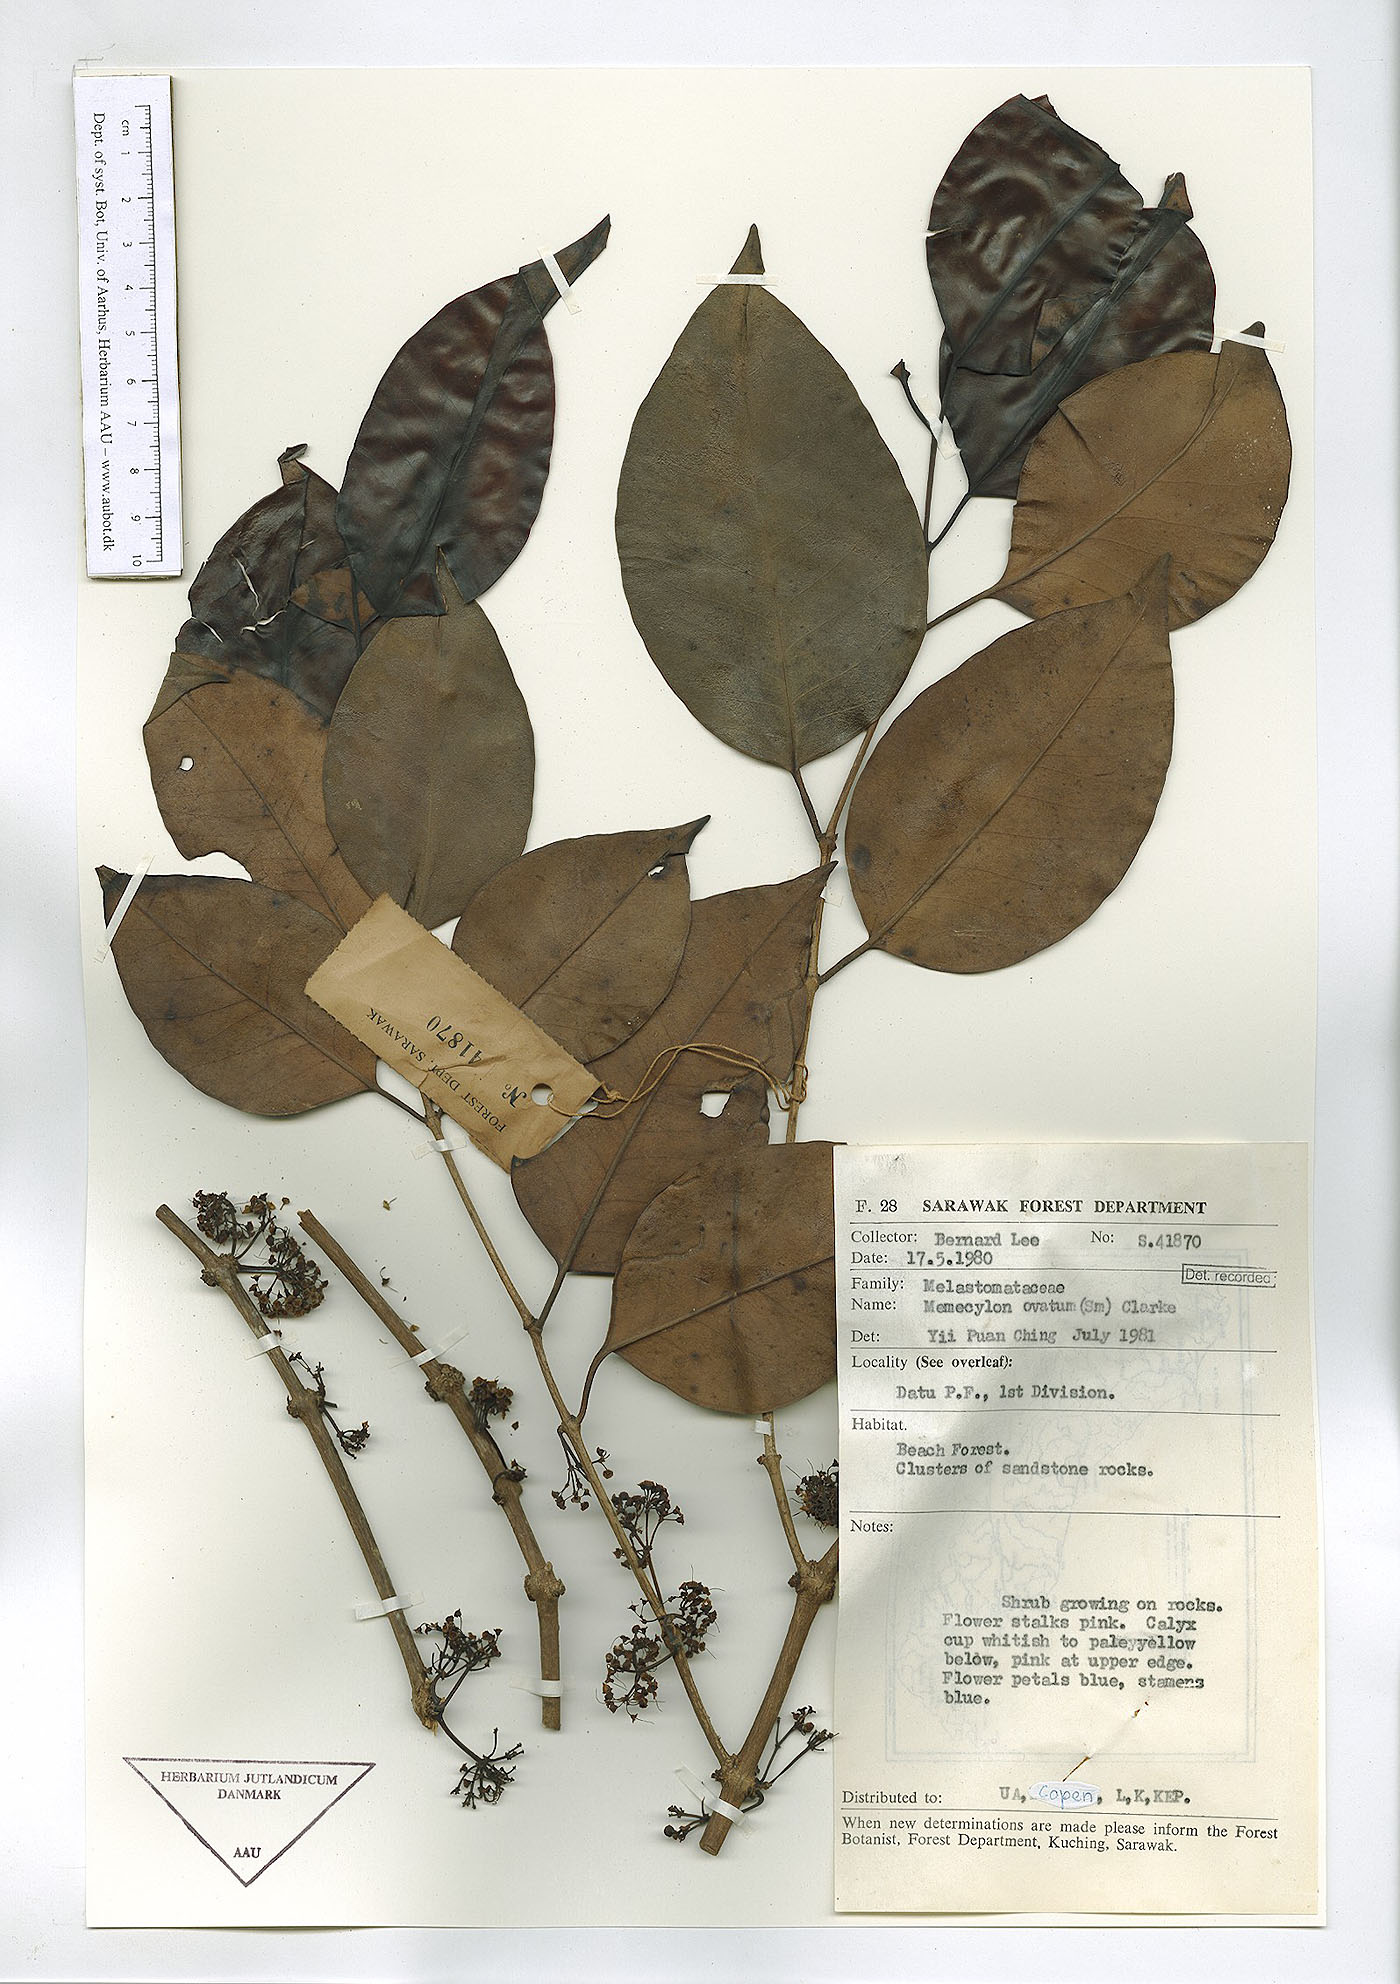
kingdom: Plantae
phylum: Tracheophyta
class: Magnoliopsida
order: Myrtales
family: Melastomataceae
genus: Memecylon
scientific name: Memecylon ovatum
